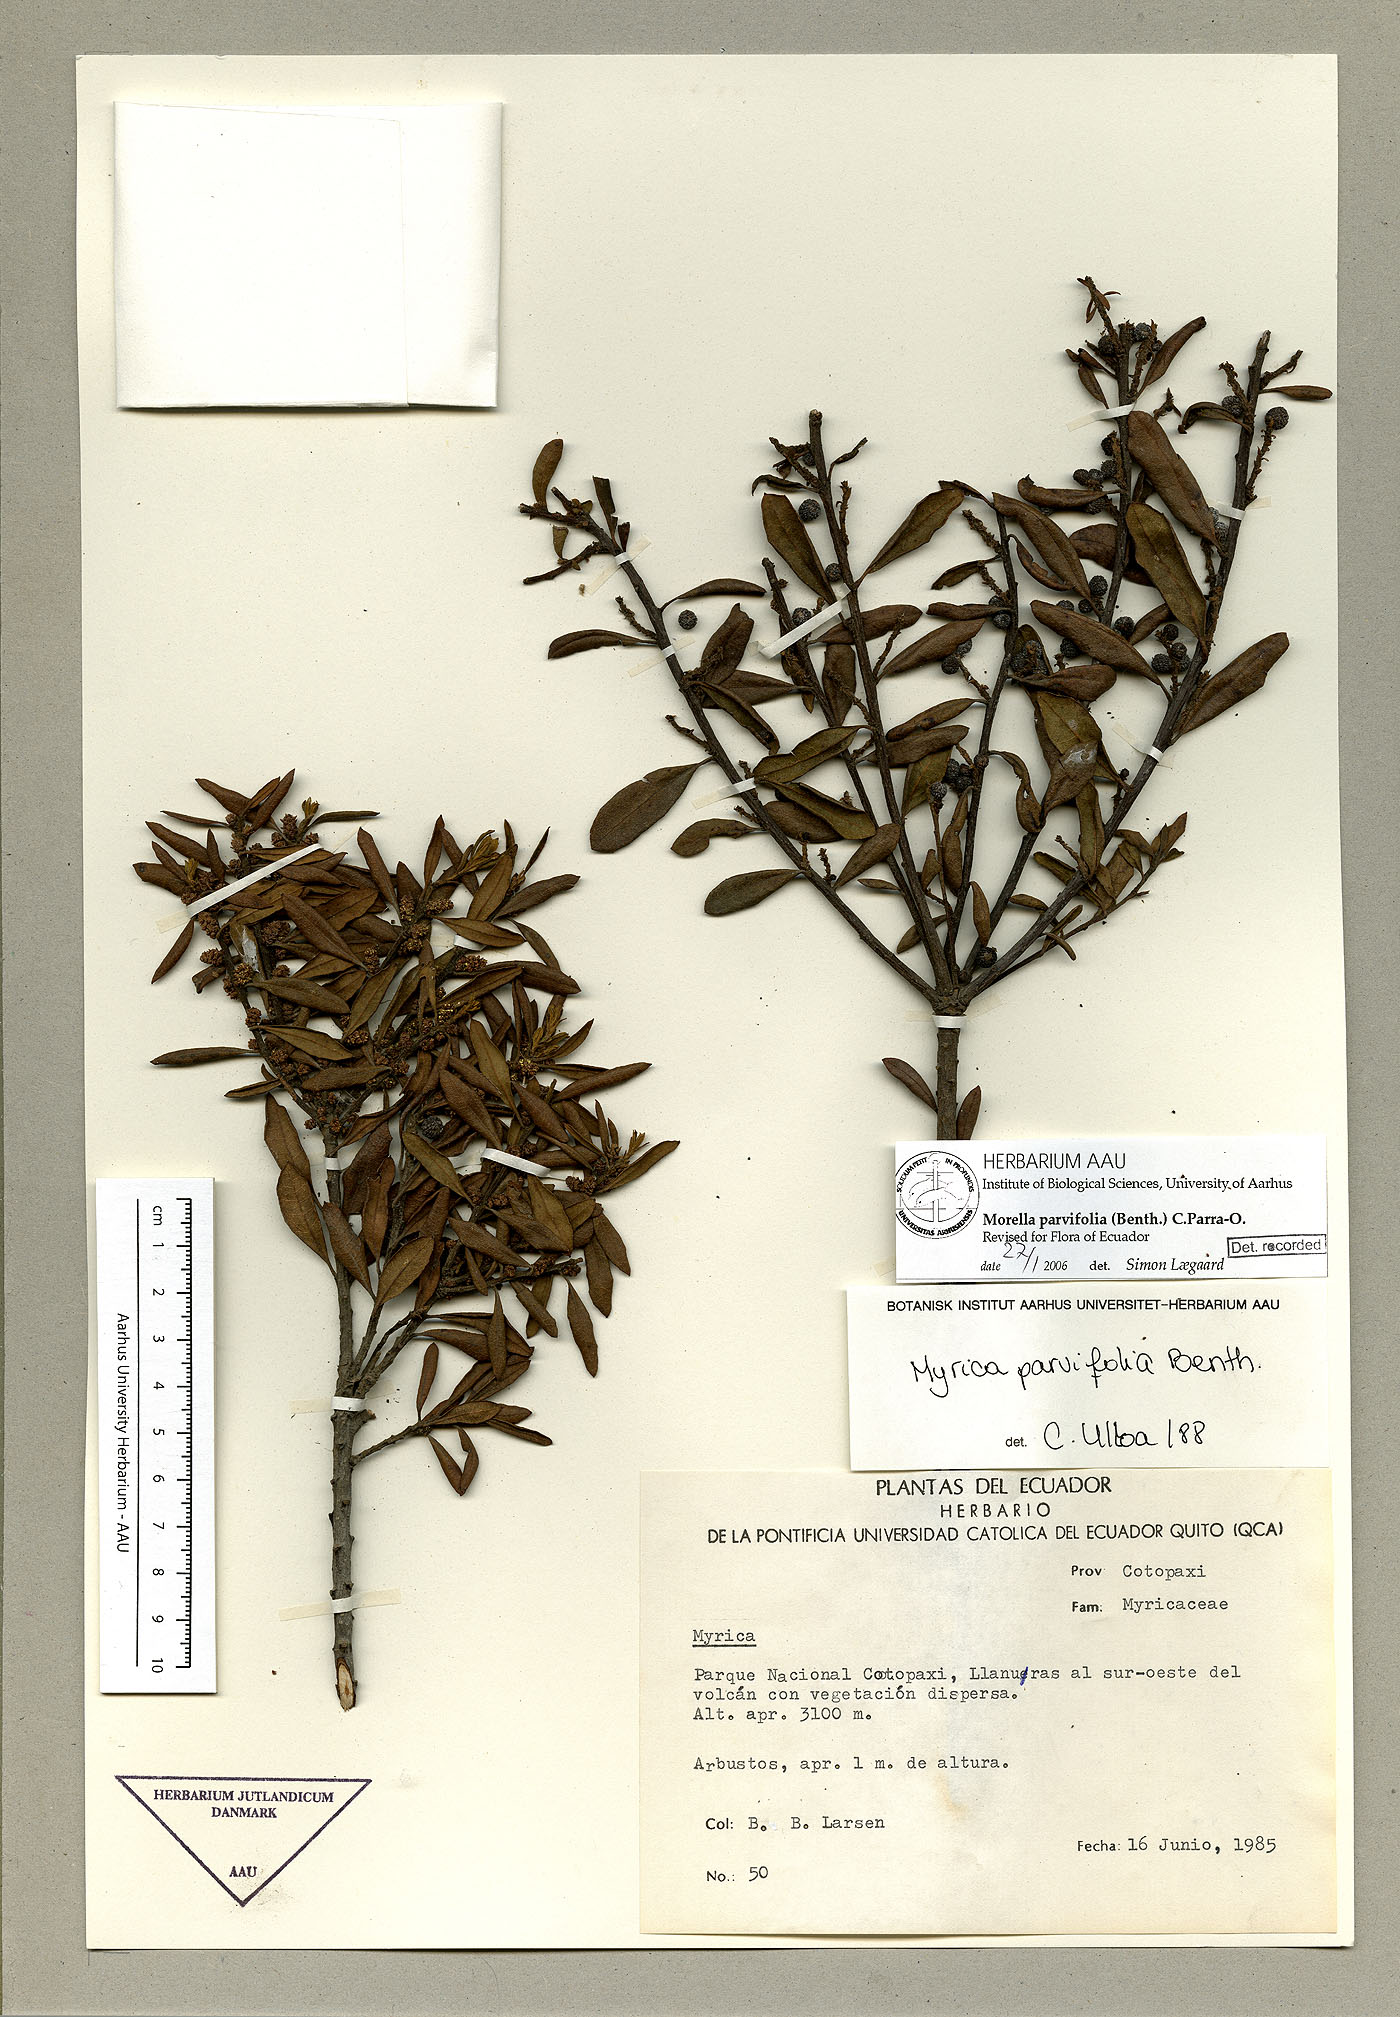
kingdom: Plantae
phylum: Tracheophyta
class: Magnoliopsida
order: Fagales
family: Myricaceae
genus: Morella
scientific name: Morella parvifolia
